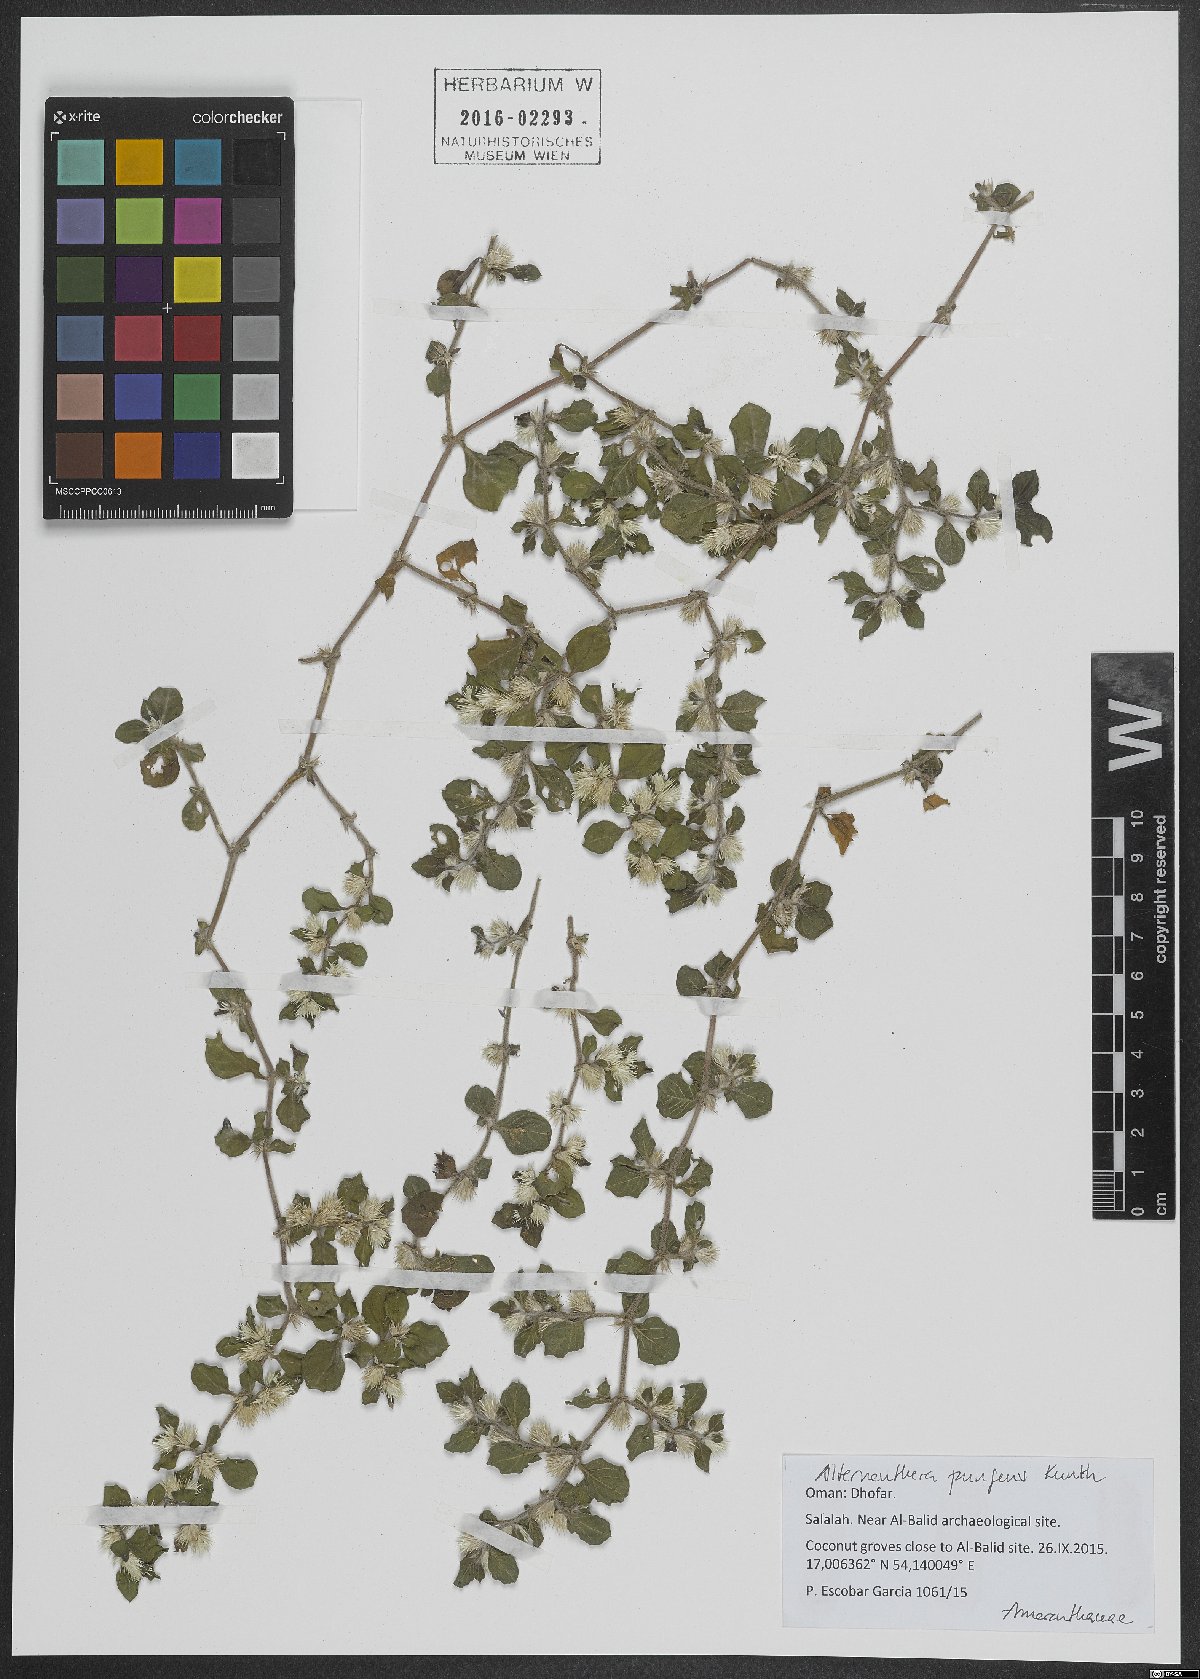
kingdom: Plantae
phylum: Tracheophyta
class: Magnoliopsida
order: Caryophyllales
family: Amaranthaceae
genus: Alternanthera
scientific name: Alternanthera pungens
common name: Khakiweed
